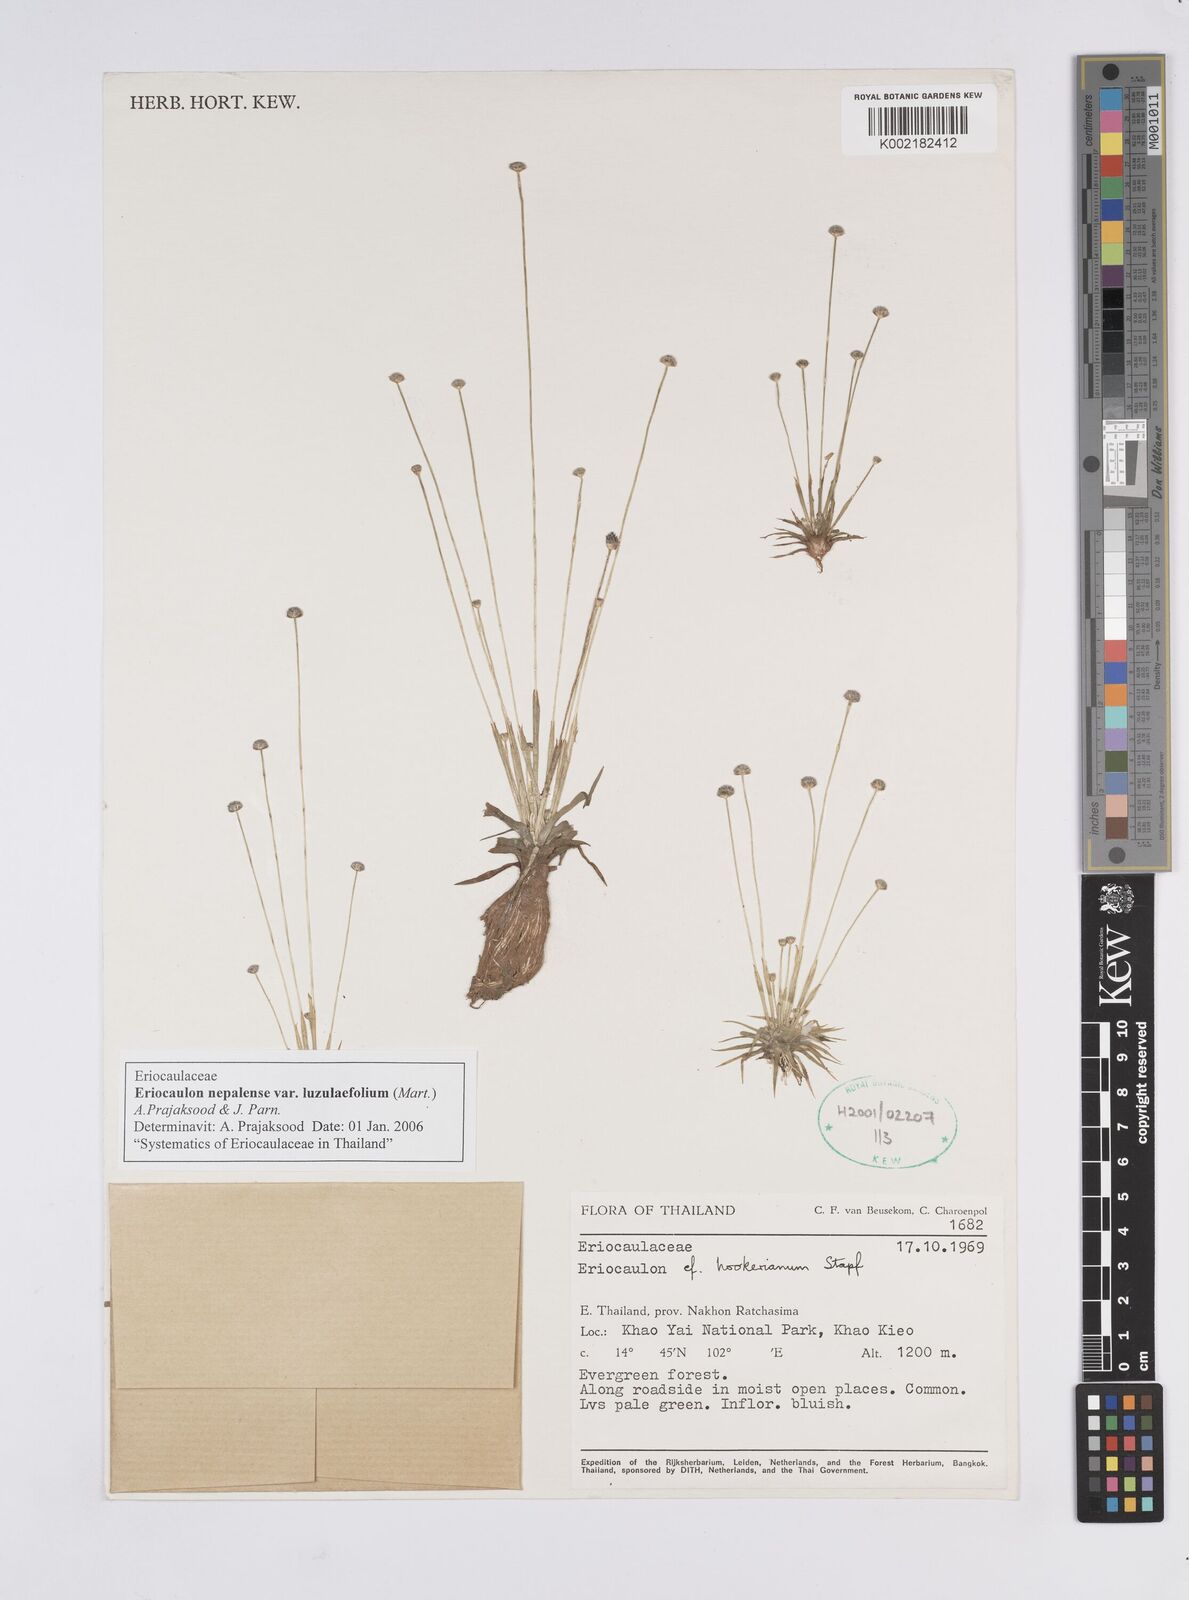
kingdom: Plantae
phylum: Tracheophyta
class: Liliopsida
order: Poales
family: Eriocaulaceae
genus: Eriocaulon
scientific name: Eriocaulon nepalense
